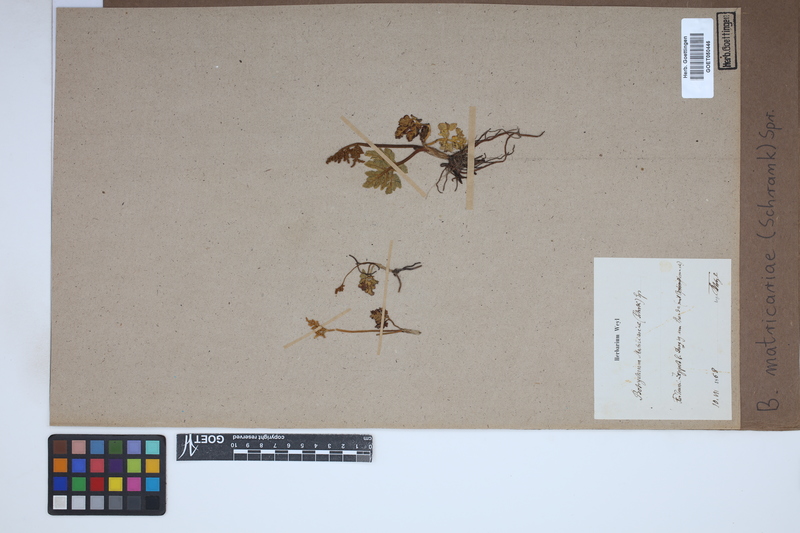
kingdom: Plantae
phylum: Tracheophyta
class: Polypodiopsida
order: Ophioglossales
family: Ophioglossaceae
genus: Sceptridium
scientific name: Sceptridium multifidum
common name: Leathery grape fern
